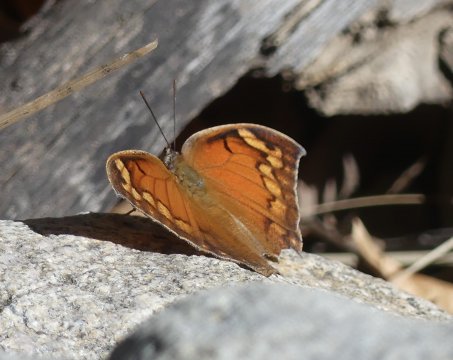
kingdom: Animalia
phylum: Arthropoda
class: Insecta
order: Lepidoptera
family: Nymphalidae
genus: Anaea
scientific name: Anaea aidea
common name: Tropical Leafwing
